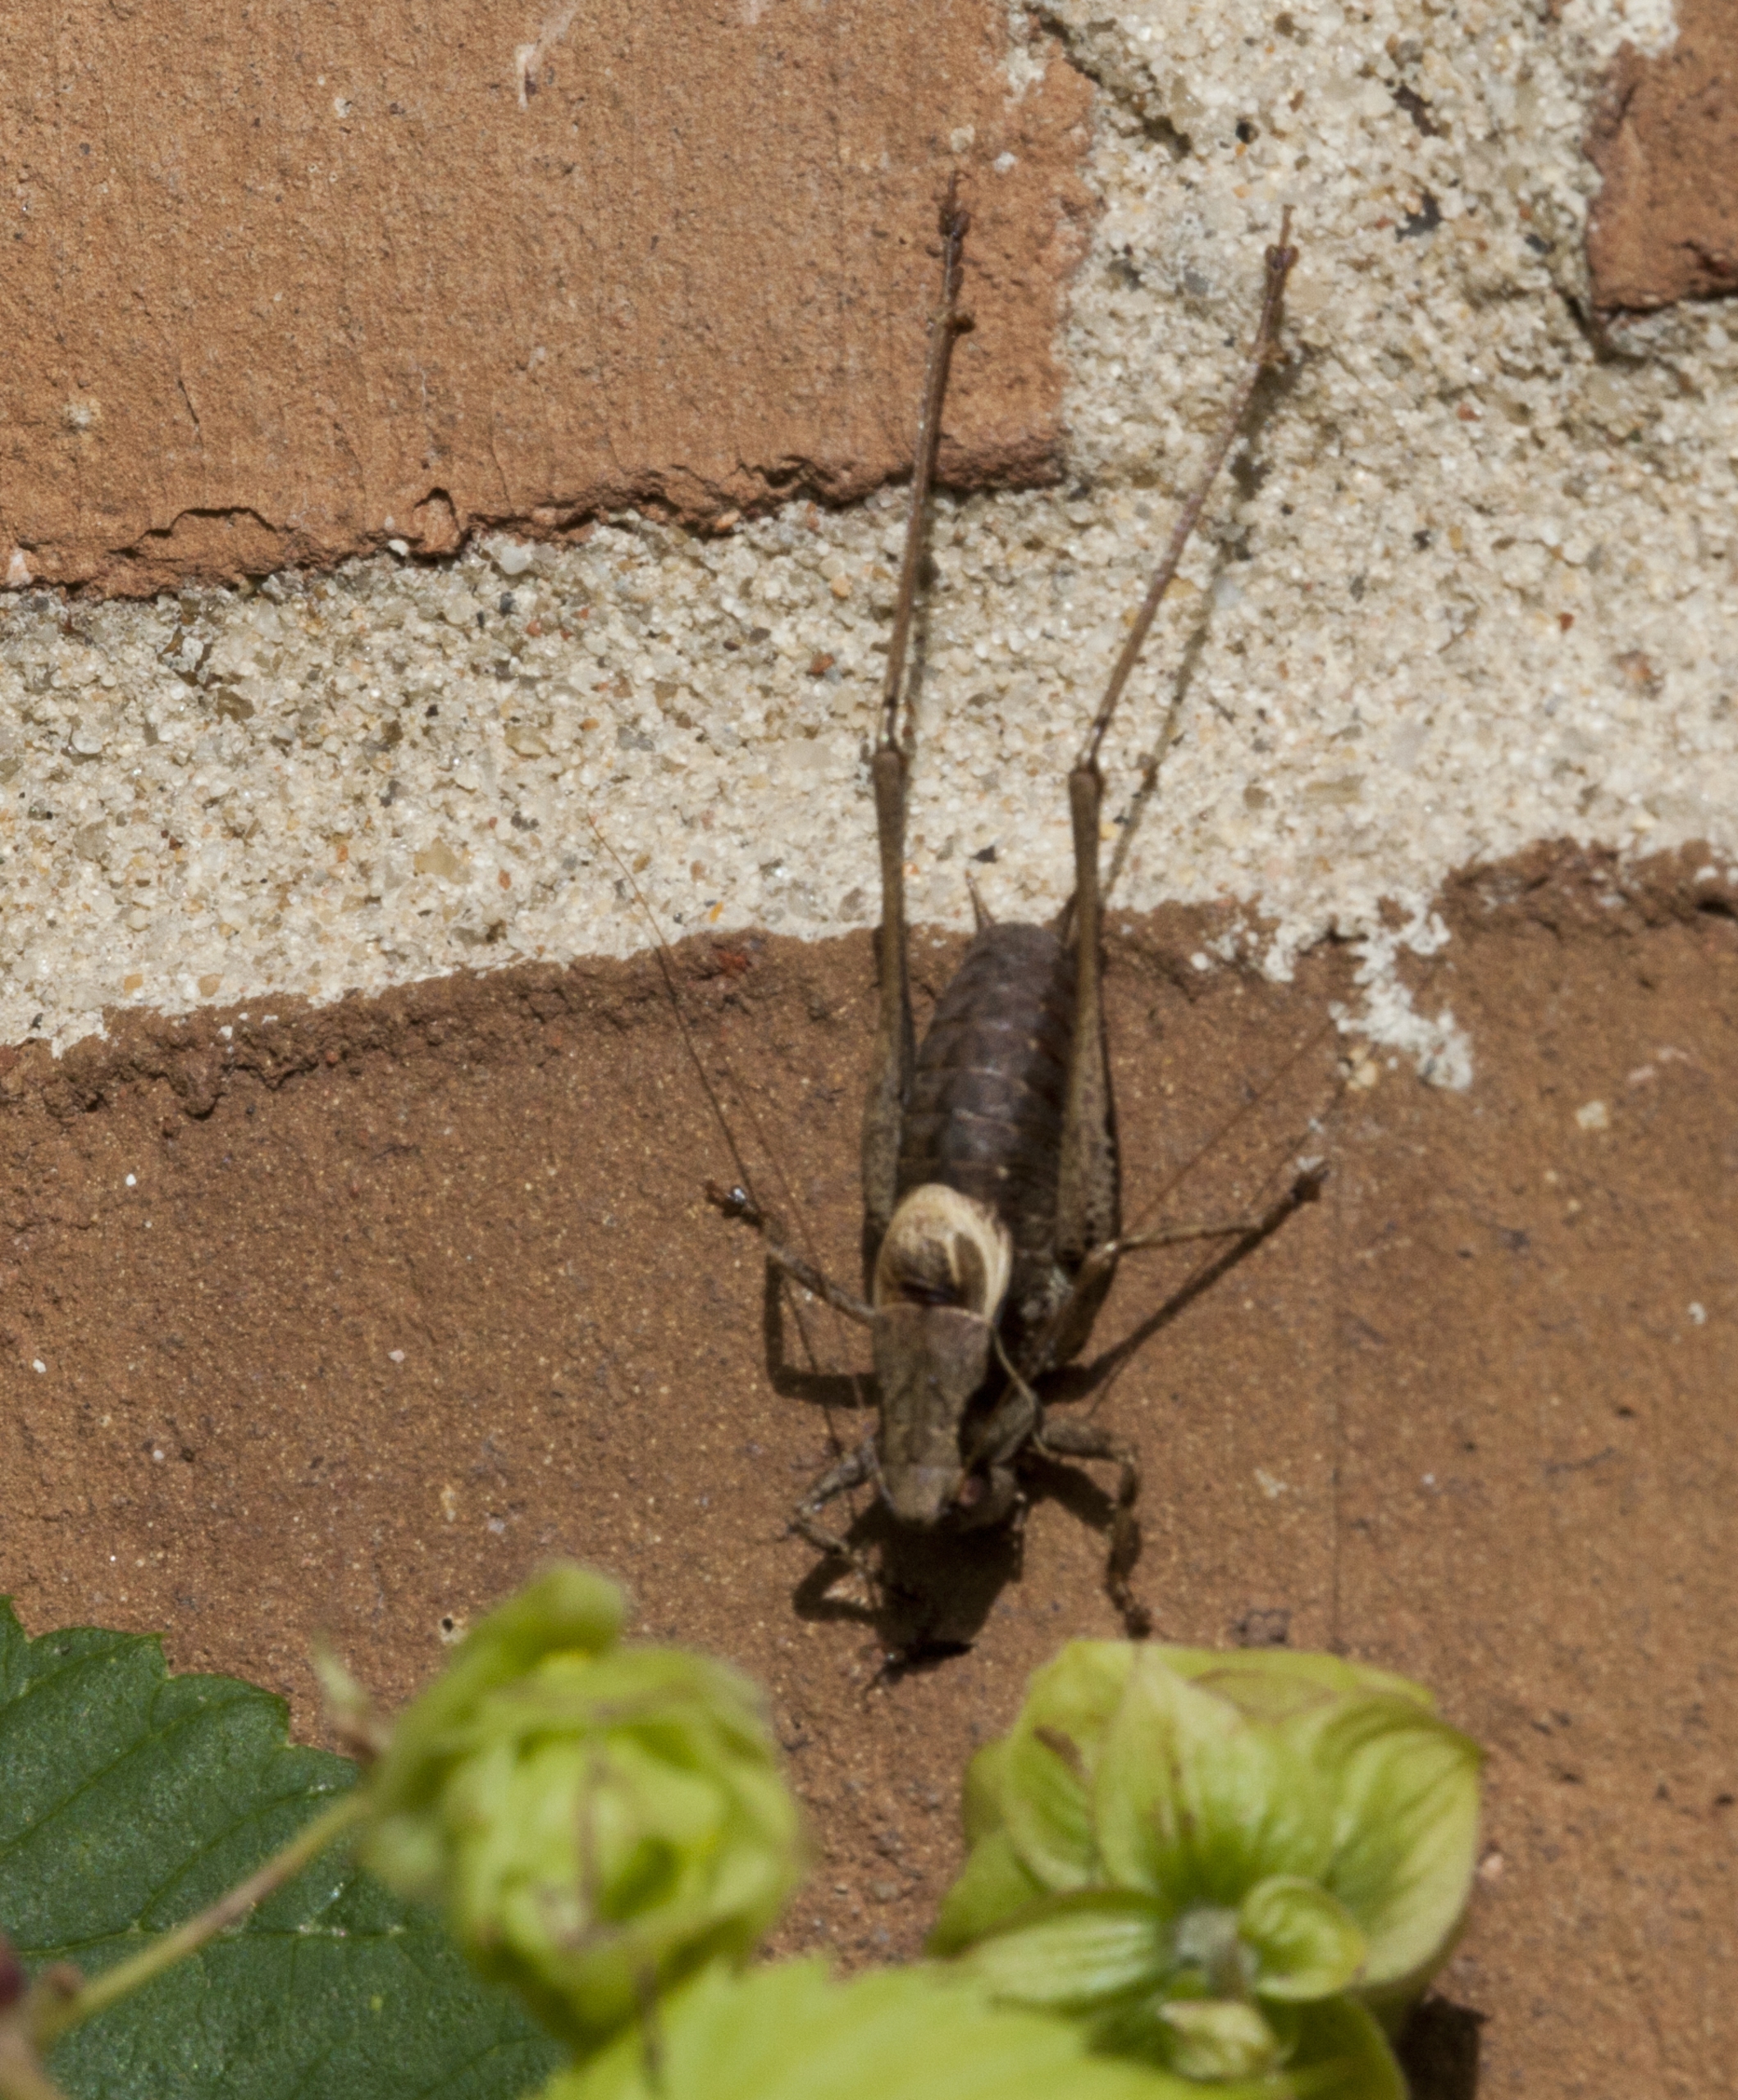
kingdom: Animalia
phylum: Arthropoda
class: Insecta
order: Orthoptera
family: Tettigoniidae
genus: Pholidoptera
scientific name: Pholidoptera griseoaptera
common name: Buskgræshoppe
